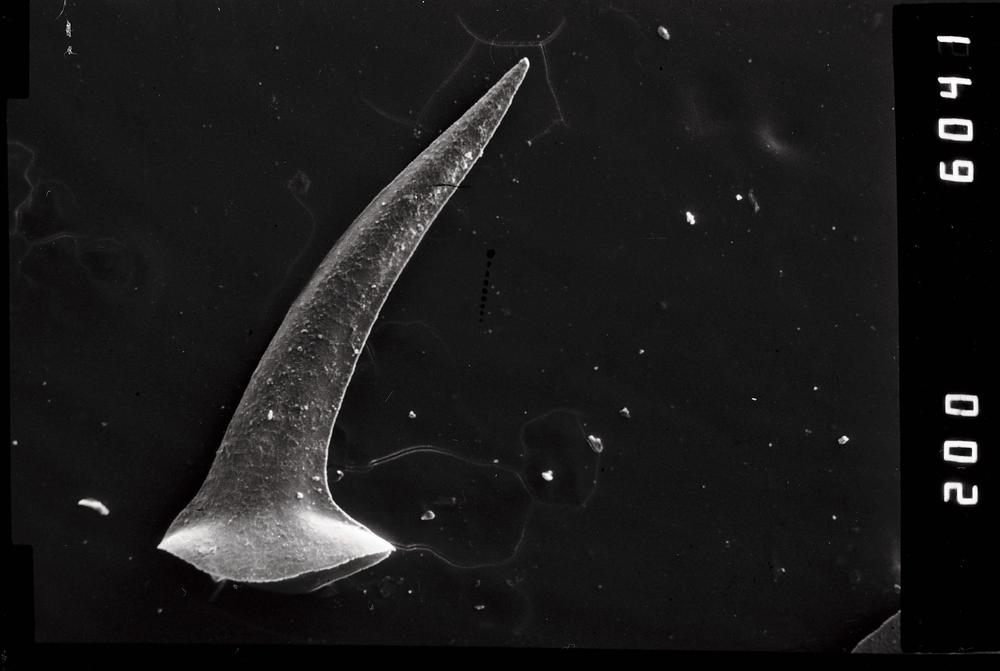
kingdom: Animalia
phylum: Chordata
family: Drepanoistodontidae
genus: Drepanoistodus
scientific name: Drepanoistodus Oistodus forceps
